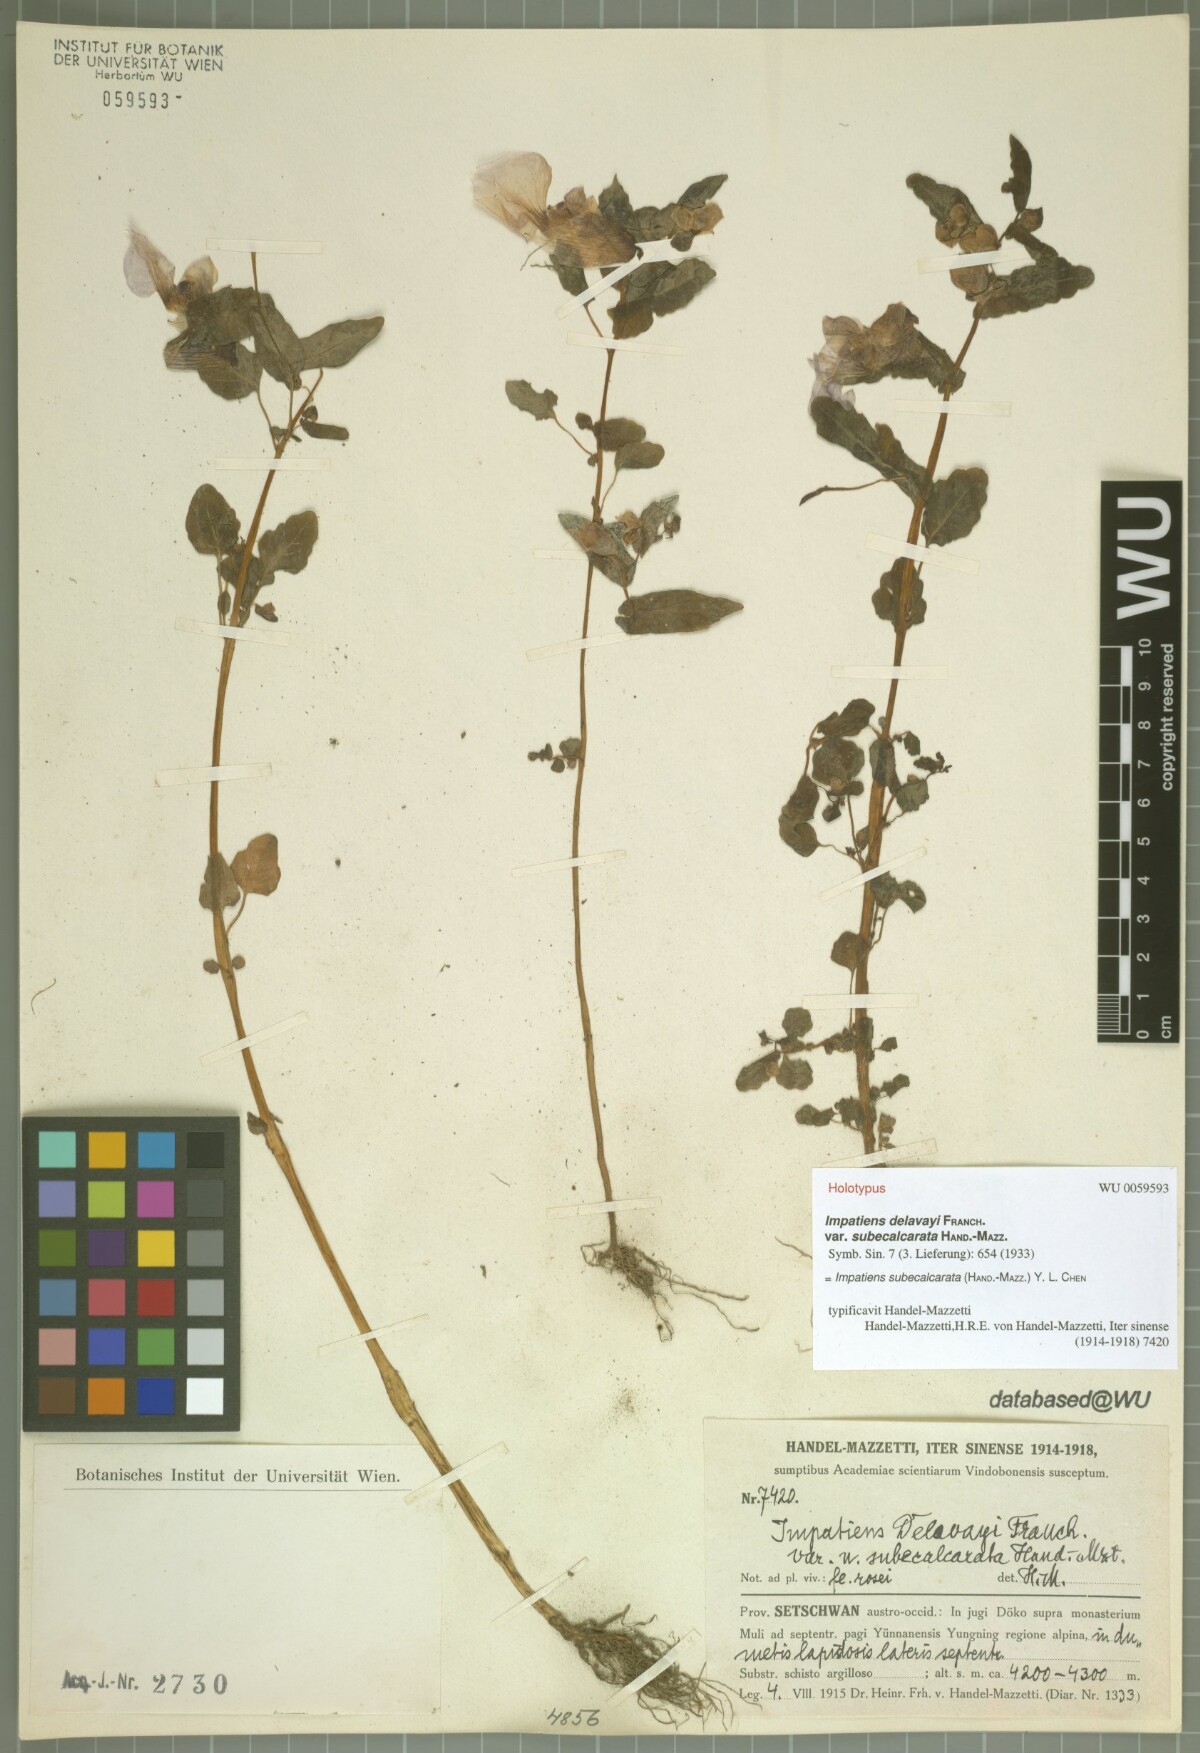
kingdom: Plantae
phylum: Tracheophyta
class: Magnoliopsida
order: Ericales
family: Balsaminaceae
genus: Impatiens
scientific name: Impatiens subecalcarata
